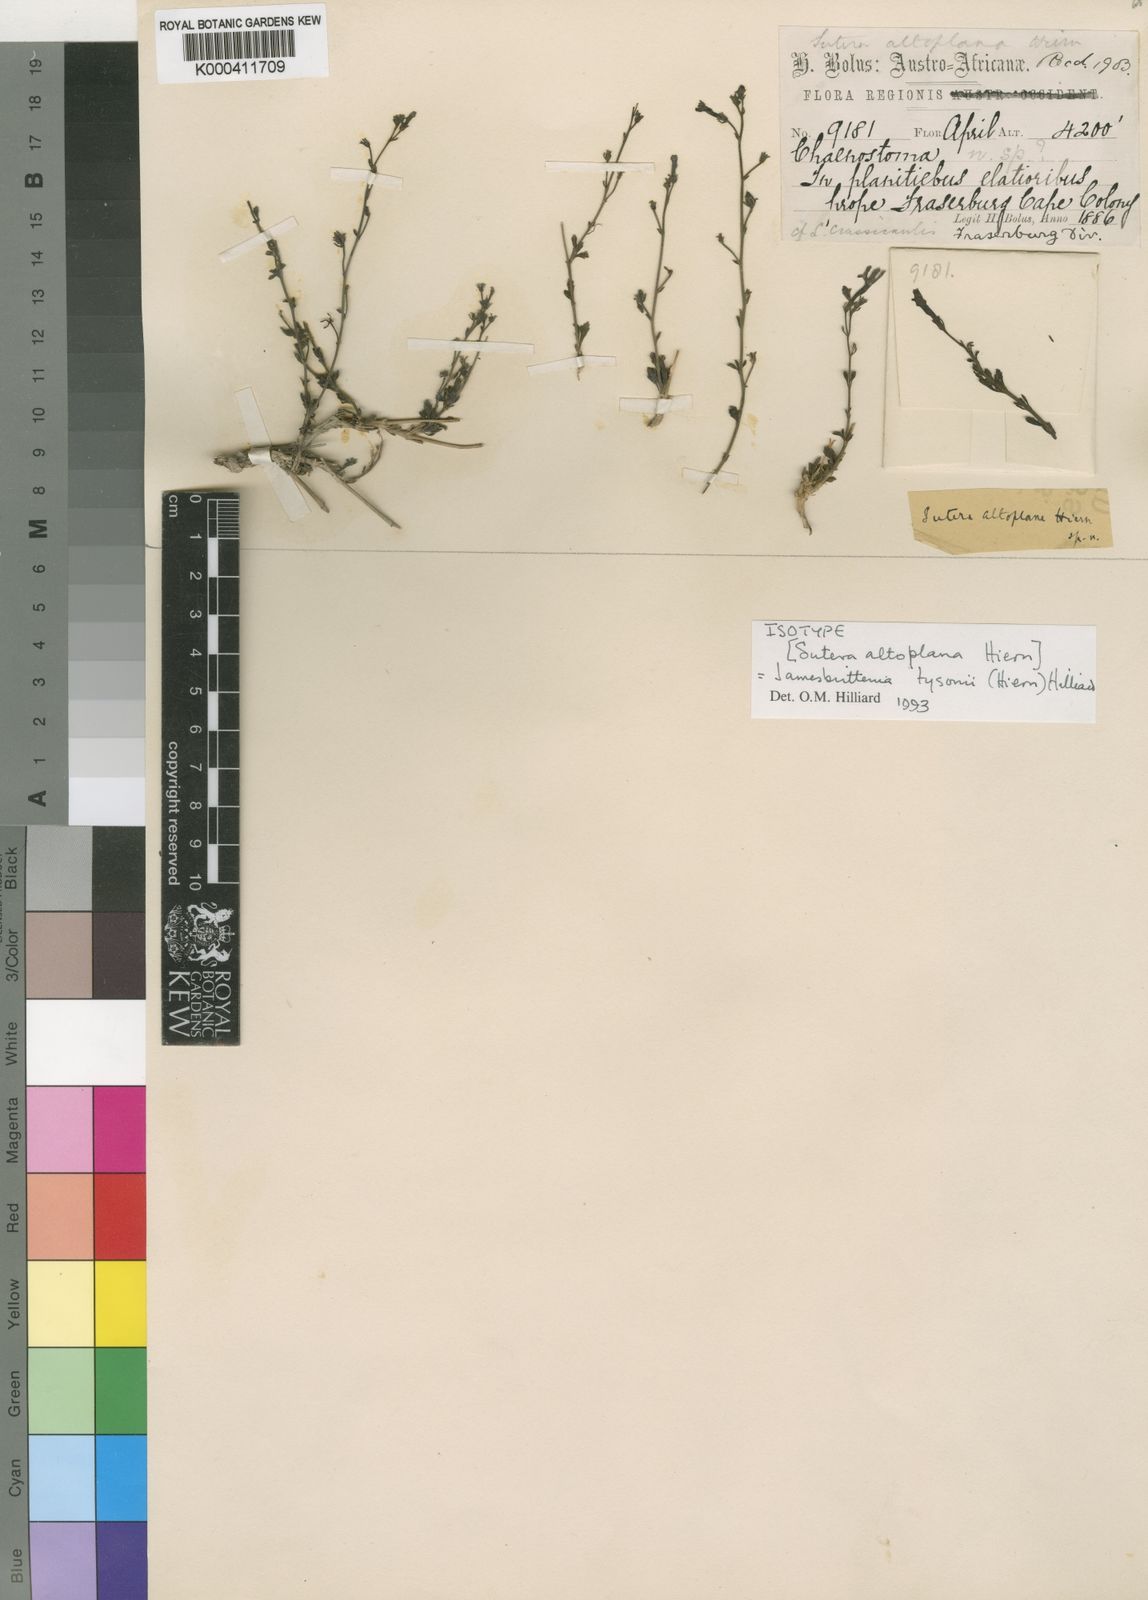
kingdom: Plantae
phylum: Tracheophyta
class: Magnoliopsida
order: Lamiales
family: Scrophulariaceae
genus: Jamesbrittenia
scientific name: Jamesbrittenia tysonii
